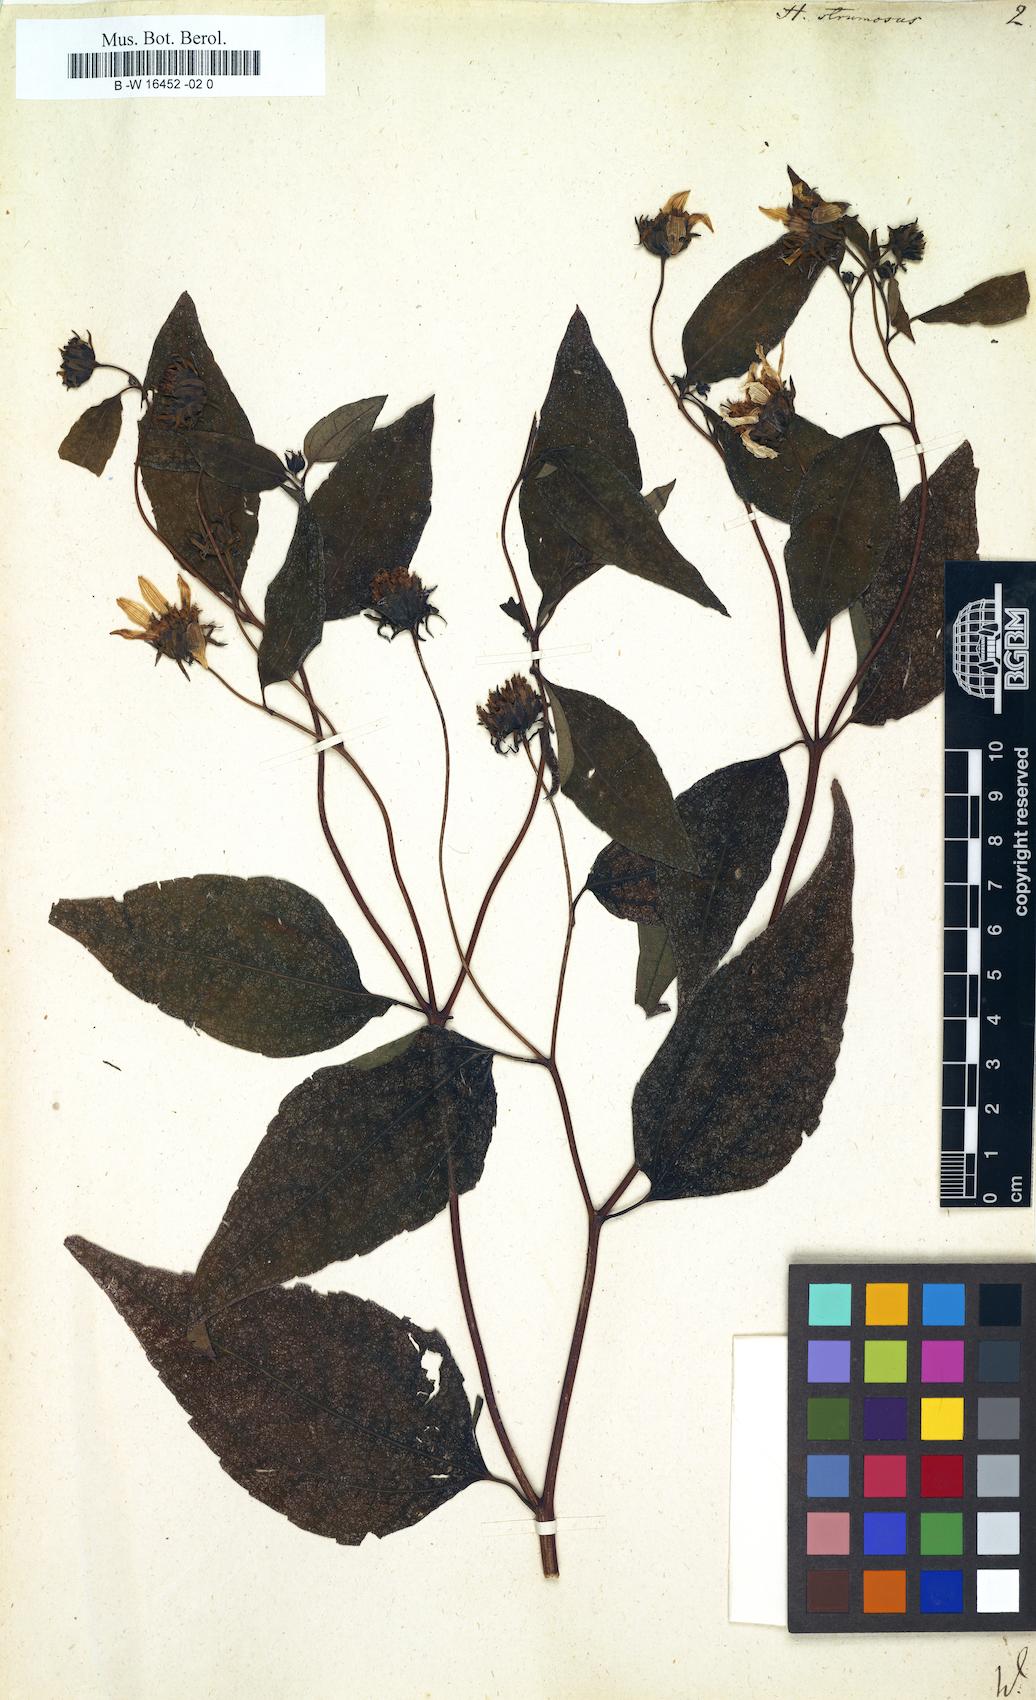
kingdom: Plantae
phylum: Tracheophyta
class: Magnoliopsida
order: Asterales
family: Asteraceae
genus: Helianthus
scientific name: Helianthus strumosus
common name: Pale-leaved sunflower
